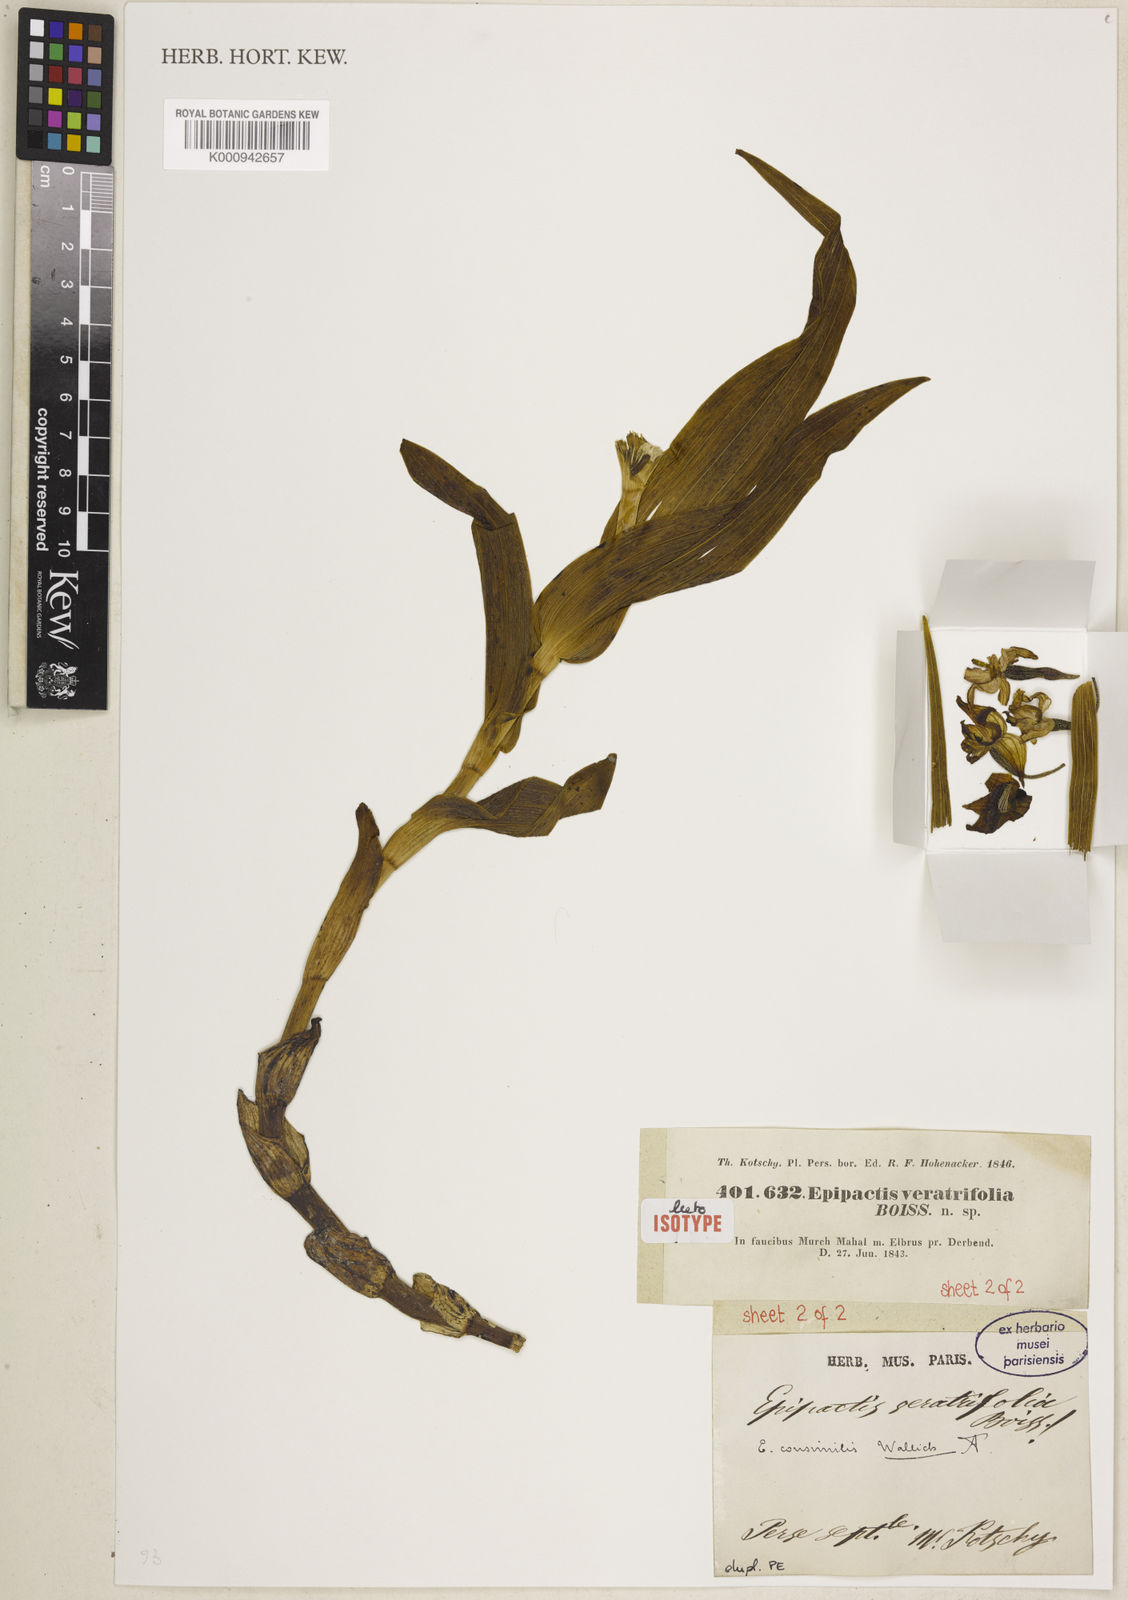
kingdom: Plantae
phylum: Tracheophyta
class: Liliopsida
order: Asparagales
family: Orchidaceae
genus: Epipactis
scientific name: Epipactis veratrifolia
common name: Eastern marsh helleborine
